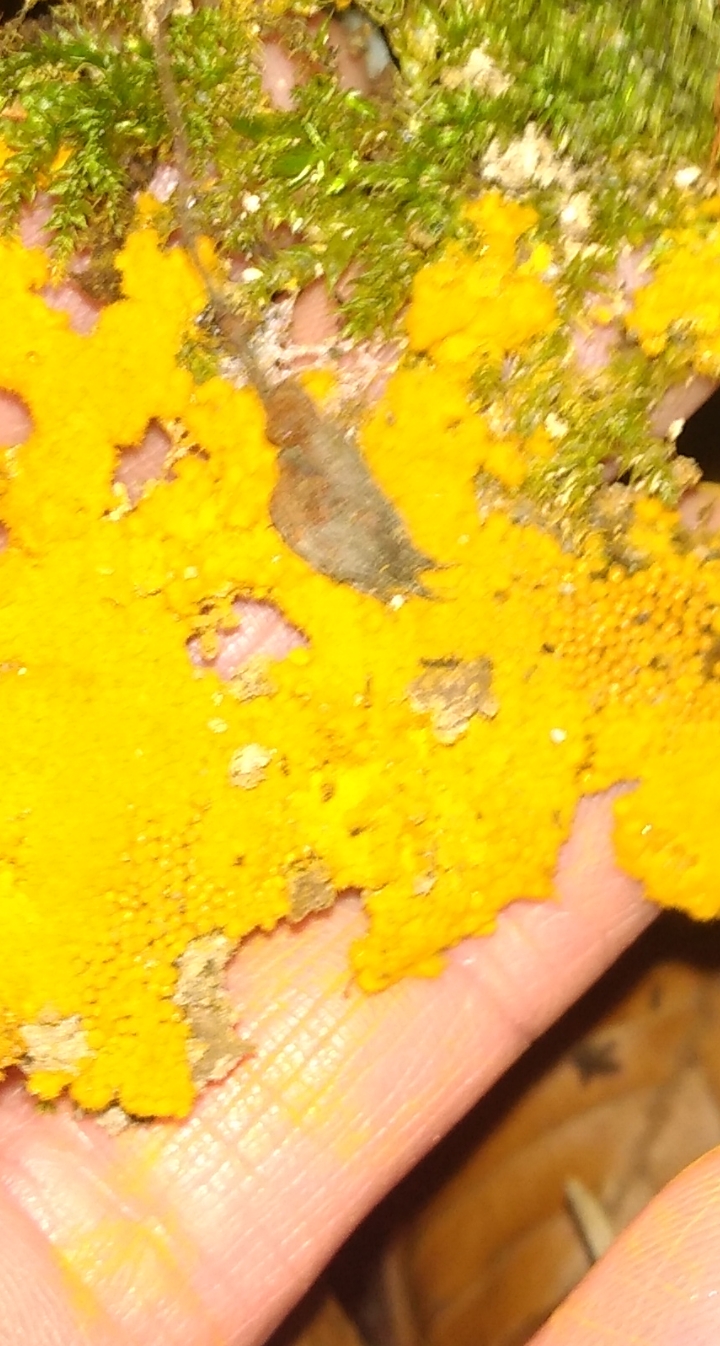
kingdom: Protozoa
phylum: Mycetozoa
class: Myxomycetes
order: Trichiales
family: Trichiaceae
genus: Trichia
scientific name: Trichia scabra
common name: tæppe-hårbold
